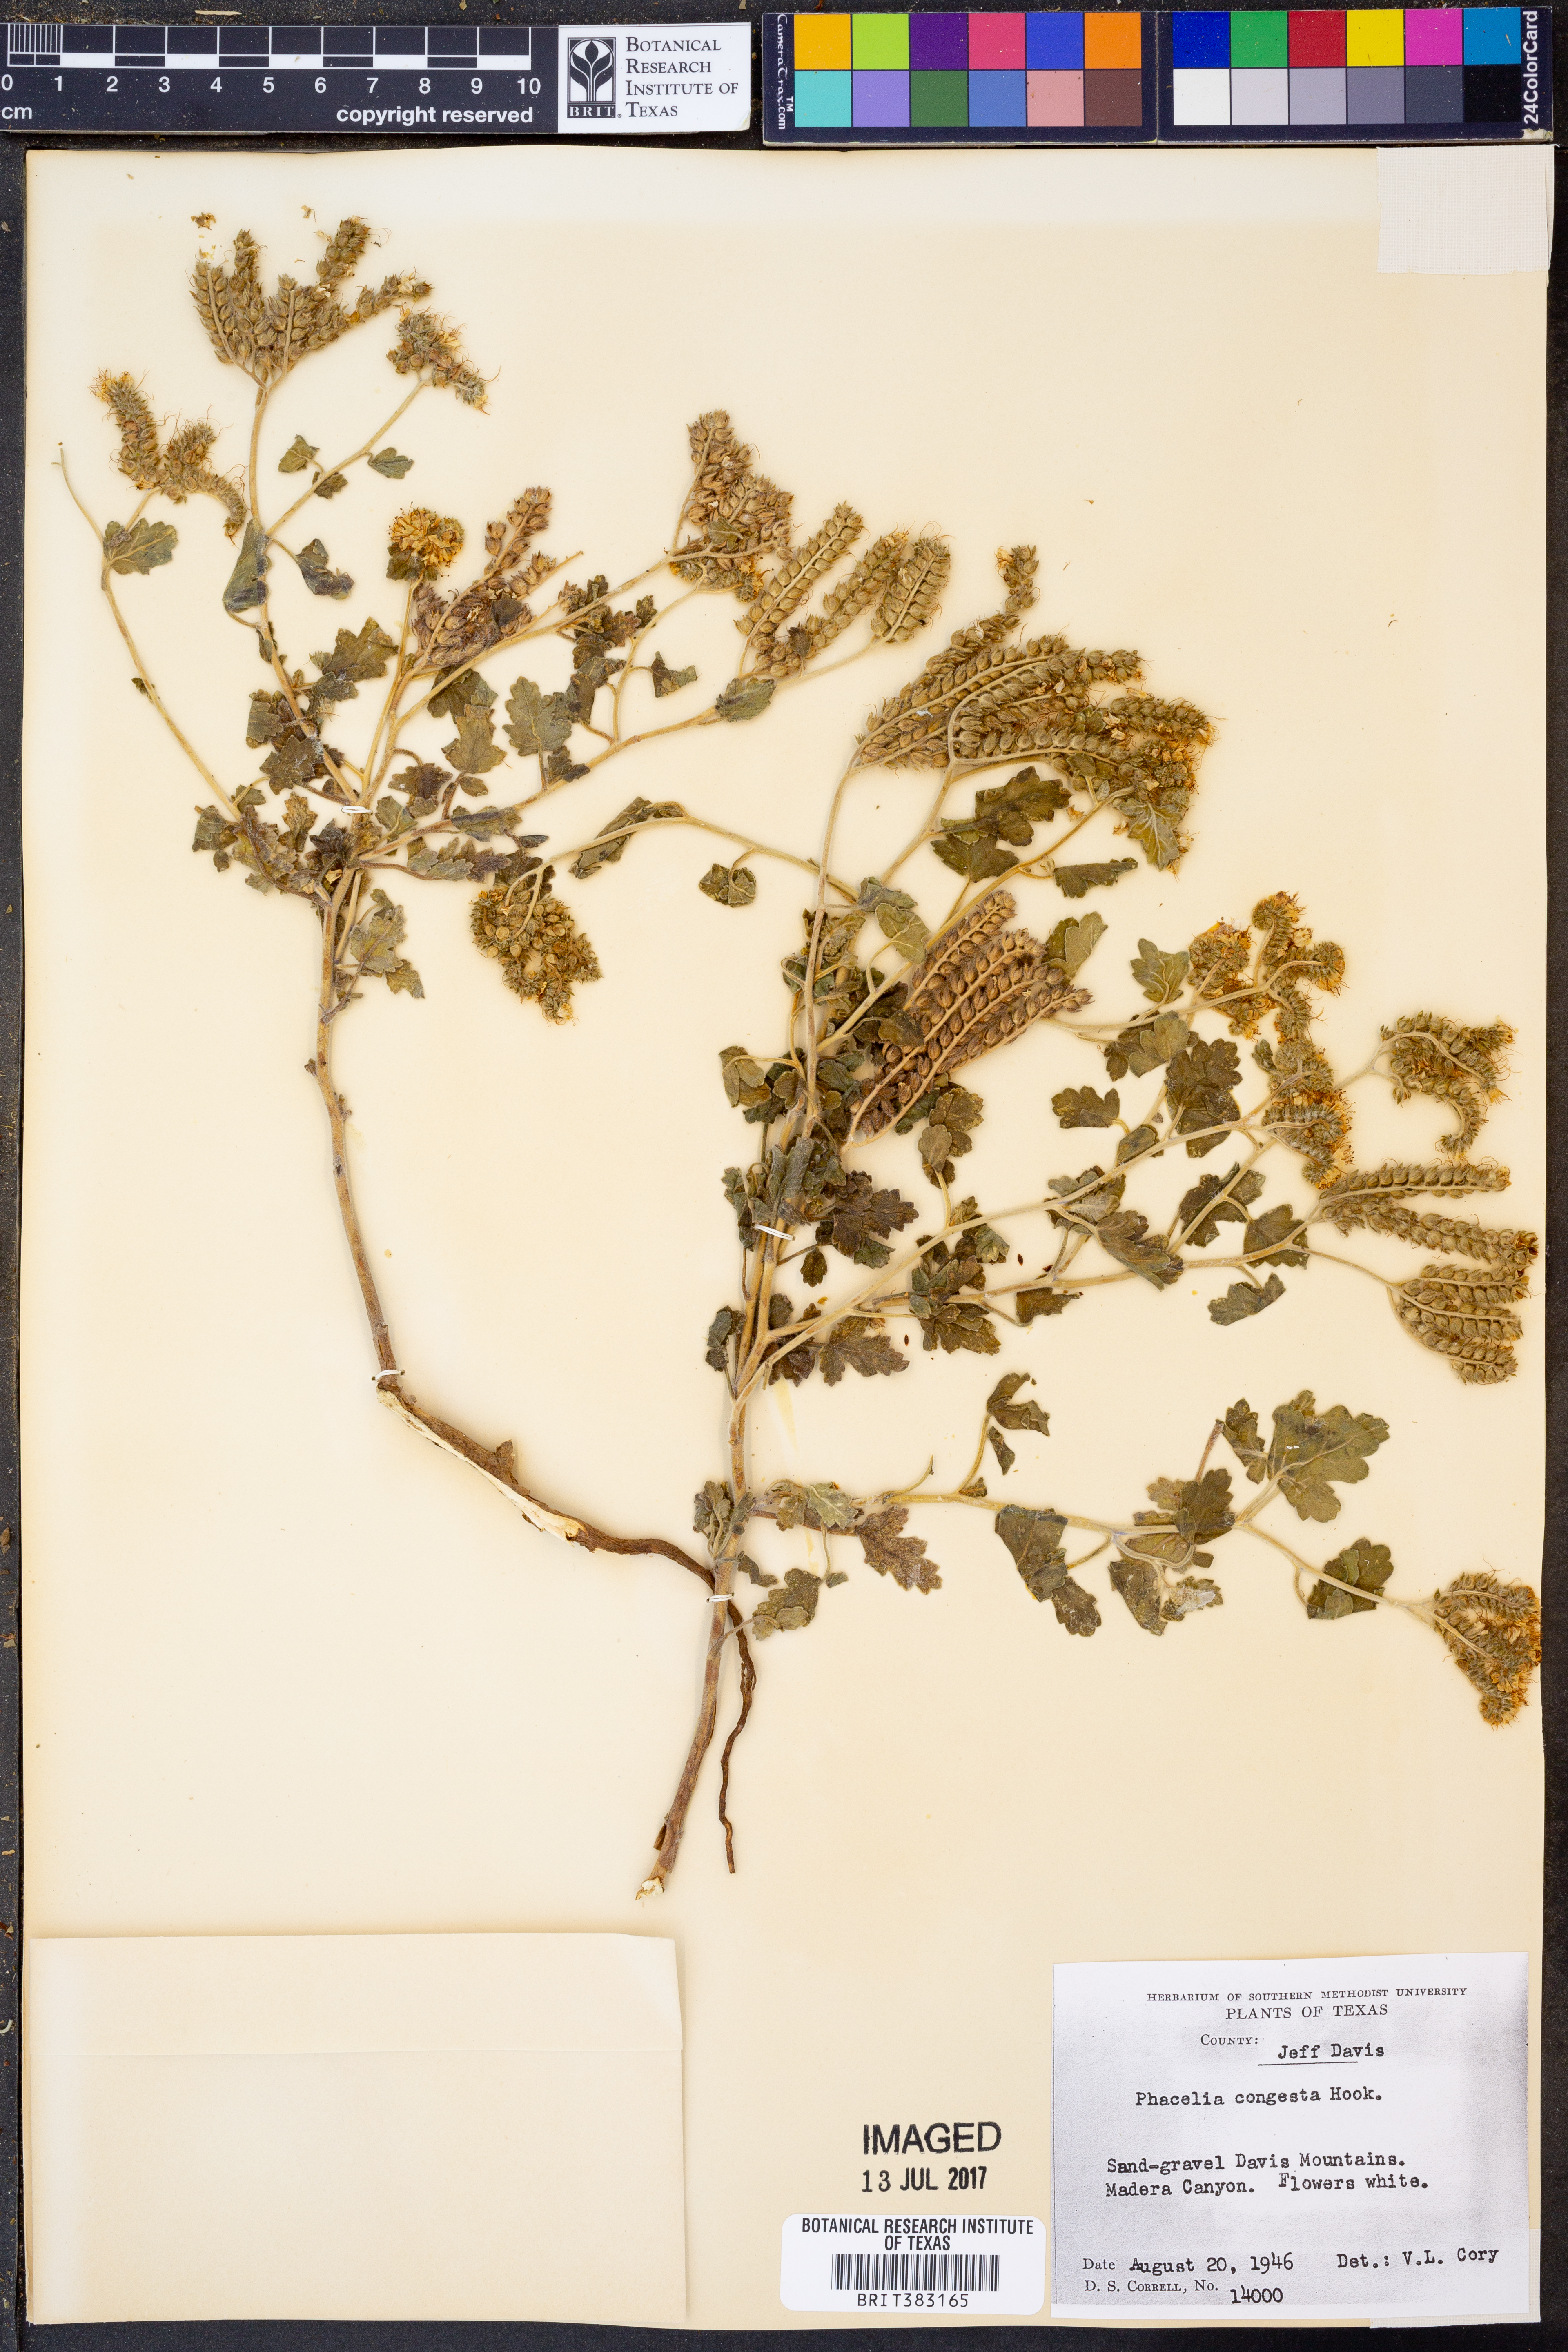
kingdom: Plantae
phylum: Tracheophyta
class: Magnoliopsida
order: Boraginales
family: Hydrophyllaceae
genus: Phacelia
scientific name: Phacelia congesta
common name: Blue curls
